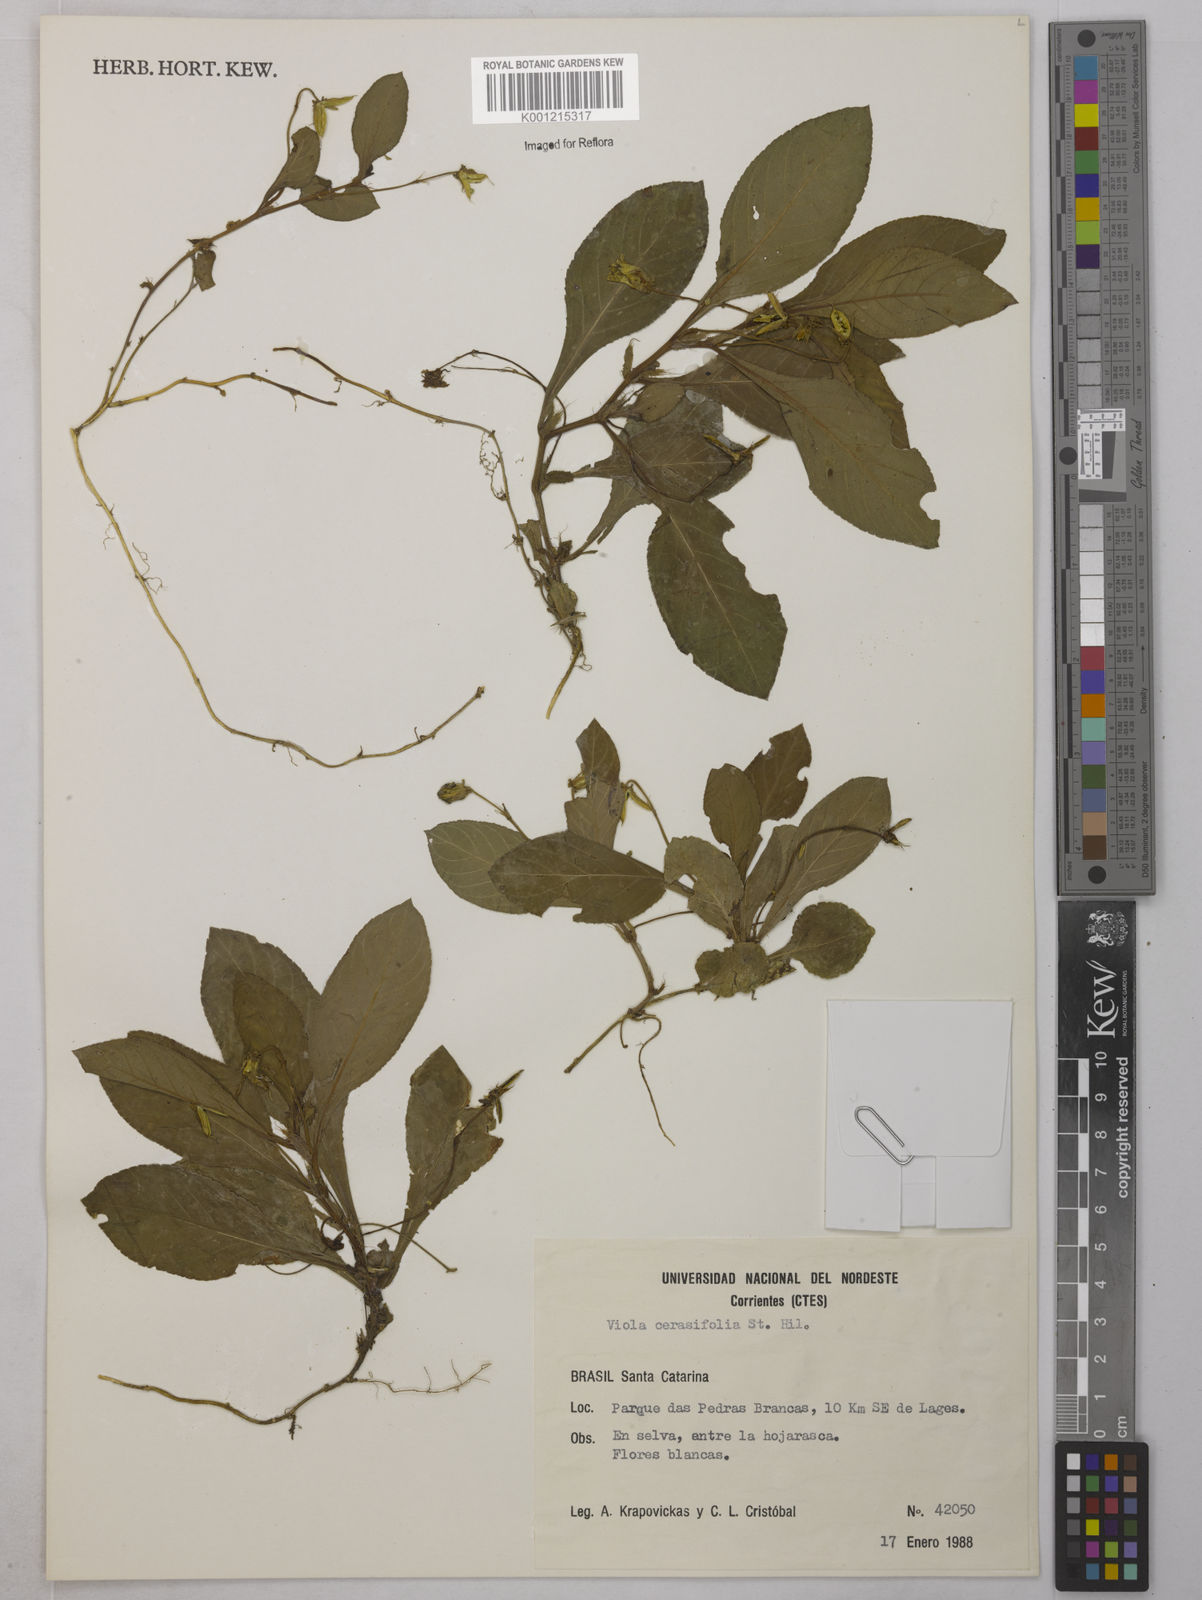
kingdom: Plantae
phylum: Tracheophyta
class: Magnoliopsida
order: Malpighiales
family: Violaceae
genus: Viola
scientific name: Viola cerasifolia
